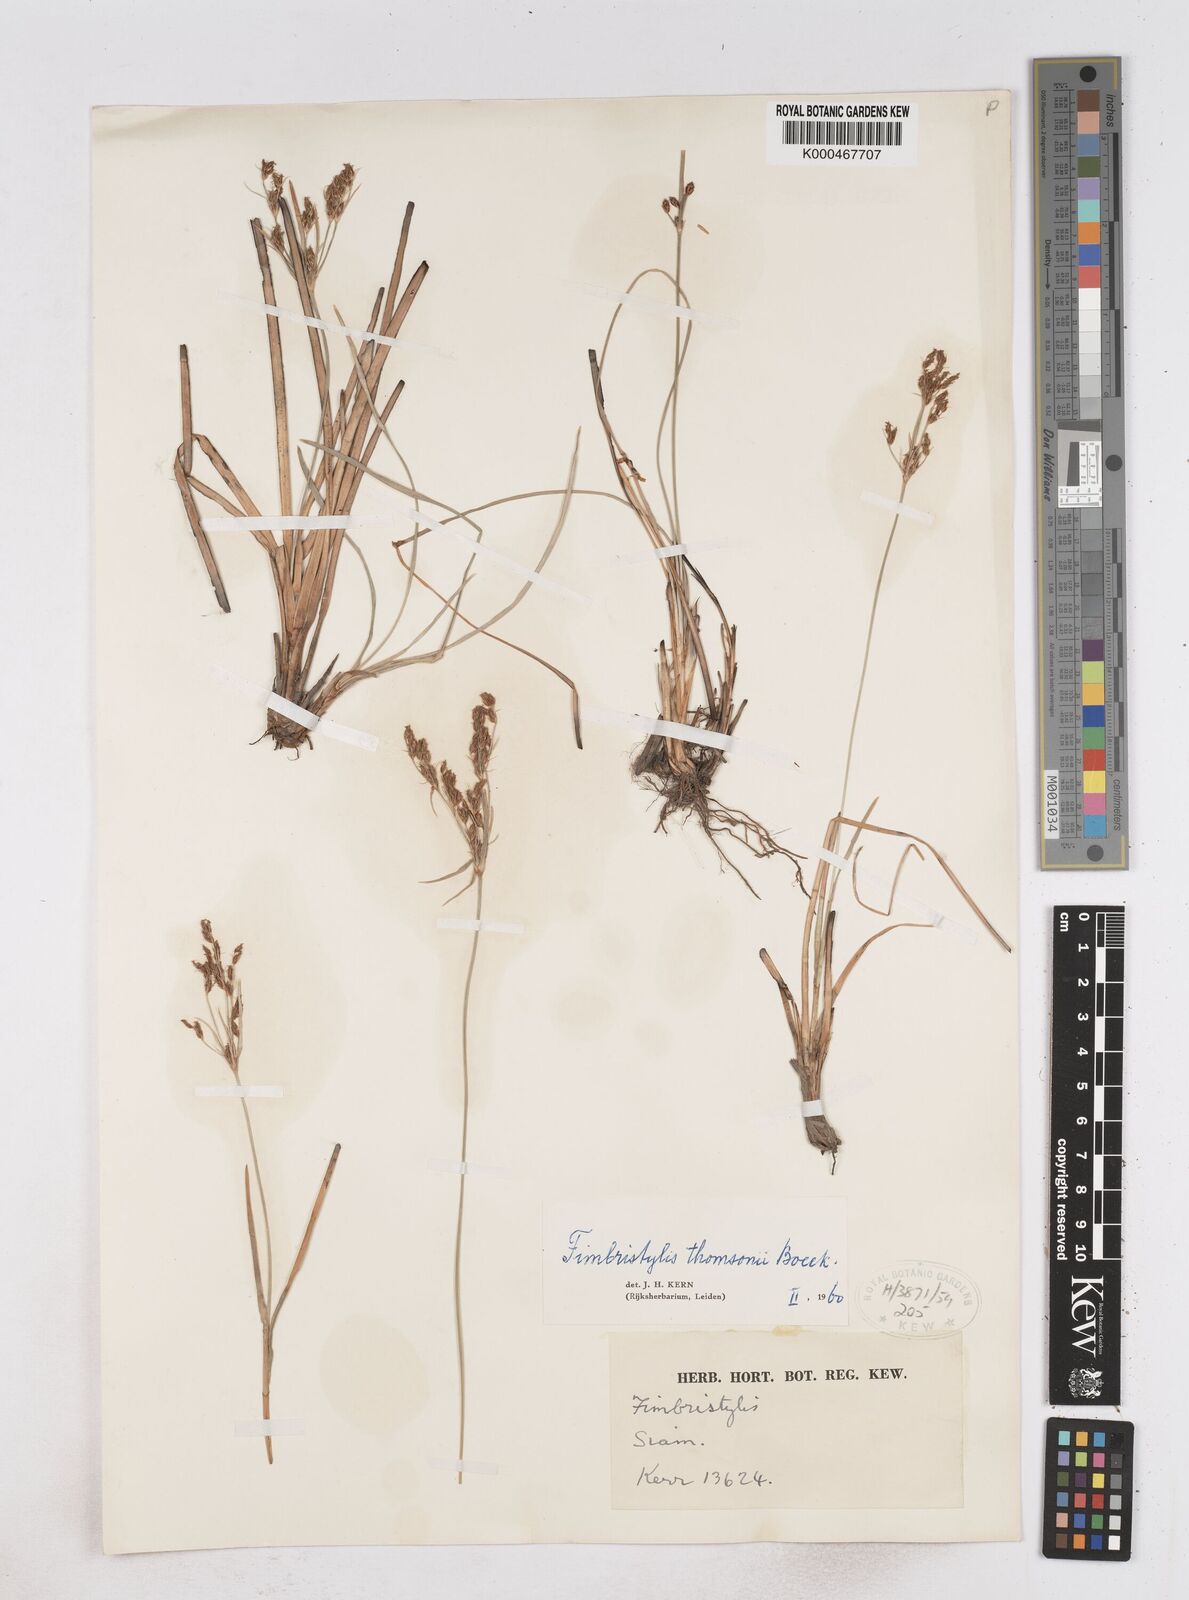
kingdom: Plantae
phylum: Tracheophyta
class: Liliopsida
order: Poales
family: Cyperaceae
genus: Fimbristylis
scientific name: Fimbristylis thomsonii
